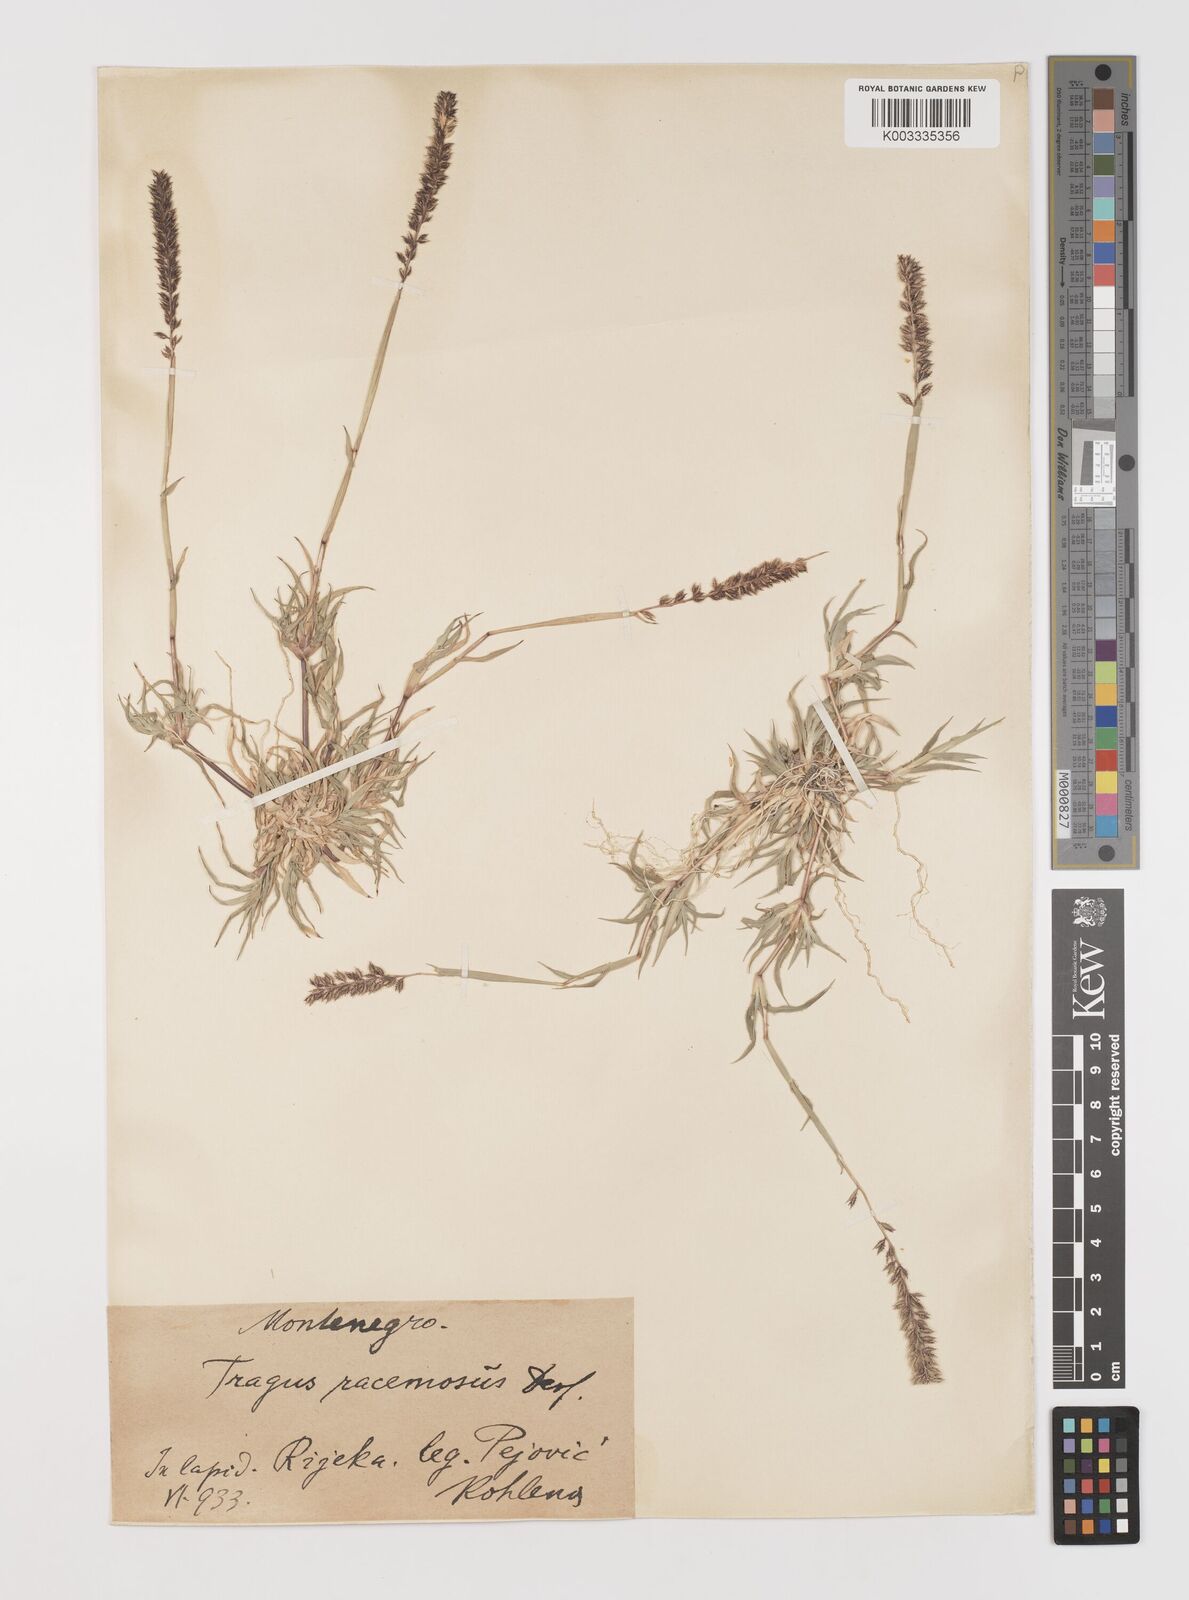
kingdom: Plantae
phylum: Tracheophyta
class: Liliopsida
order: Poales
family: Poaceae
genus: Tragus
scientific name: Tragus racemosus
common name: European bur-grass
